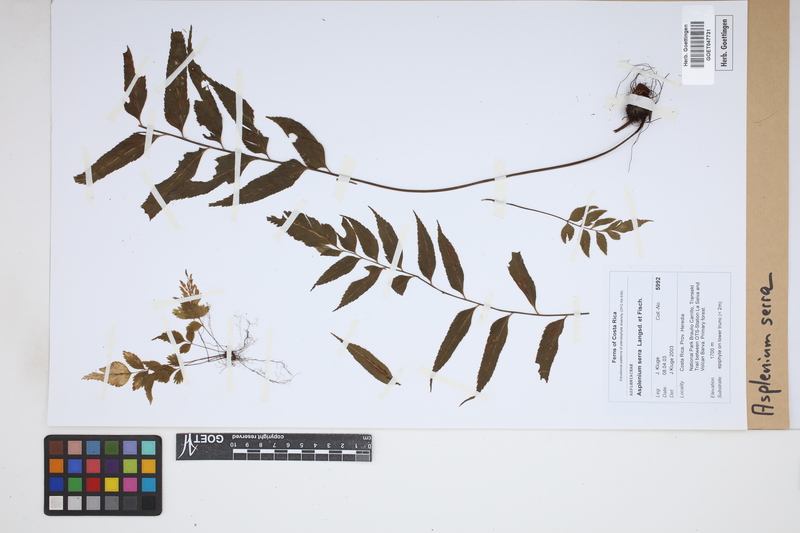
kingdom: Plantae
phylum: Tracheophyta
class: Polypodiopsida
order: Polypodiales
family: Aspleniaceae
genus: Asplenium
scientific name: Asplenium serra
